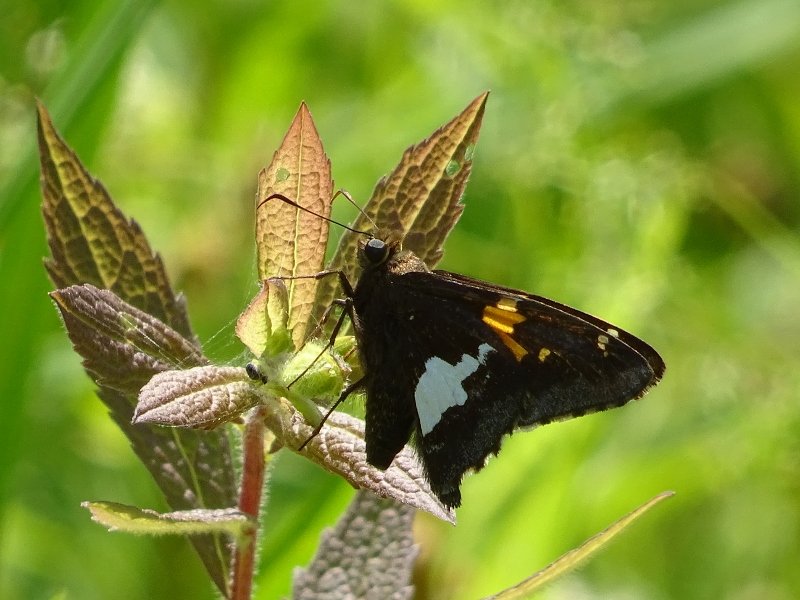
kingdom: Animalia
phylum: Arthropoda
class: Insecta
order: Lepidoptera
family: Hesperiidae
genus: Epargyreus
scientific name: Epargyreus clarus
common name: Silver-spotted Skipper
